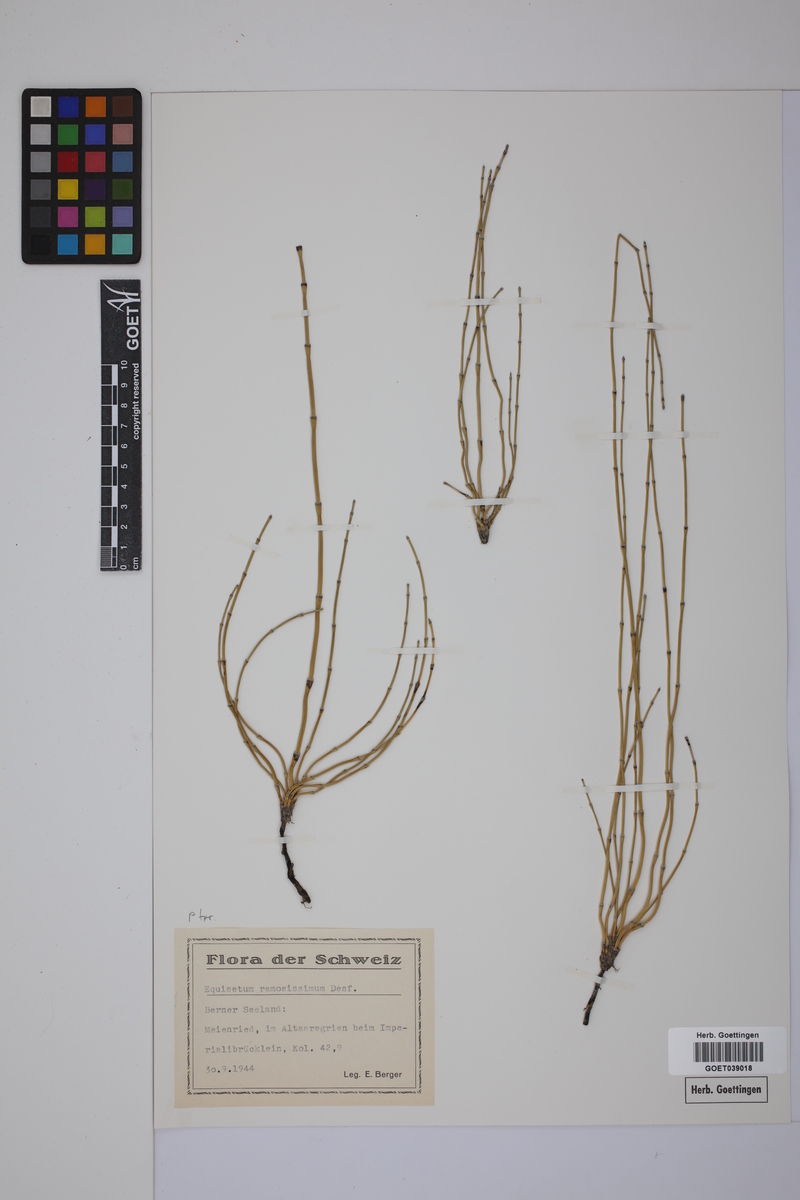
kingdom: Plantae
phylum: Tracheophyta
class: Polypodiopsida
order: Equisetales
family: Equisetaceae
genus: Equisetum
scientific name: Equisetum giganteum
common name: Giant horsetail
